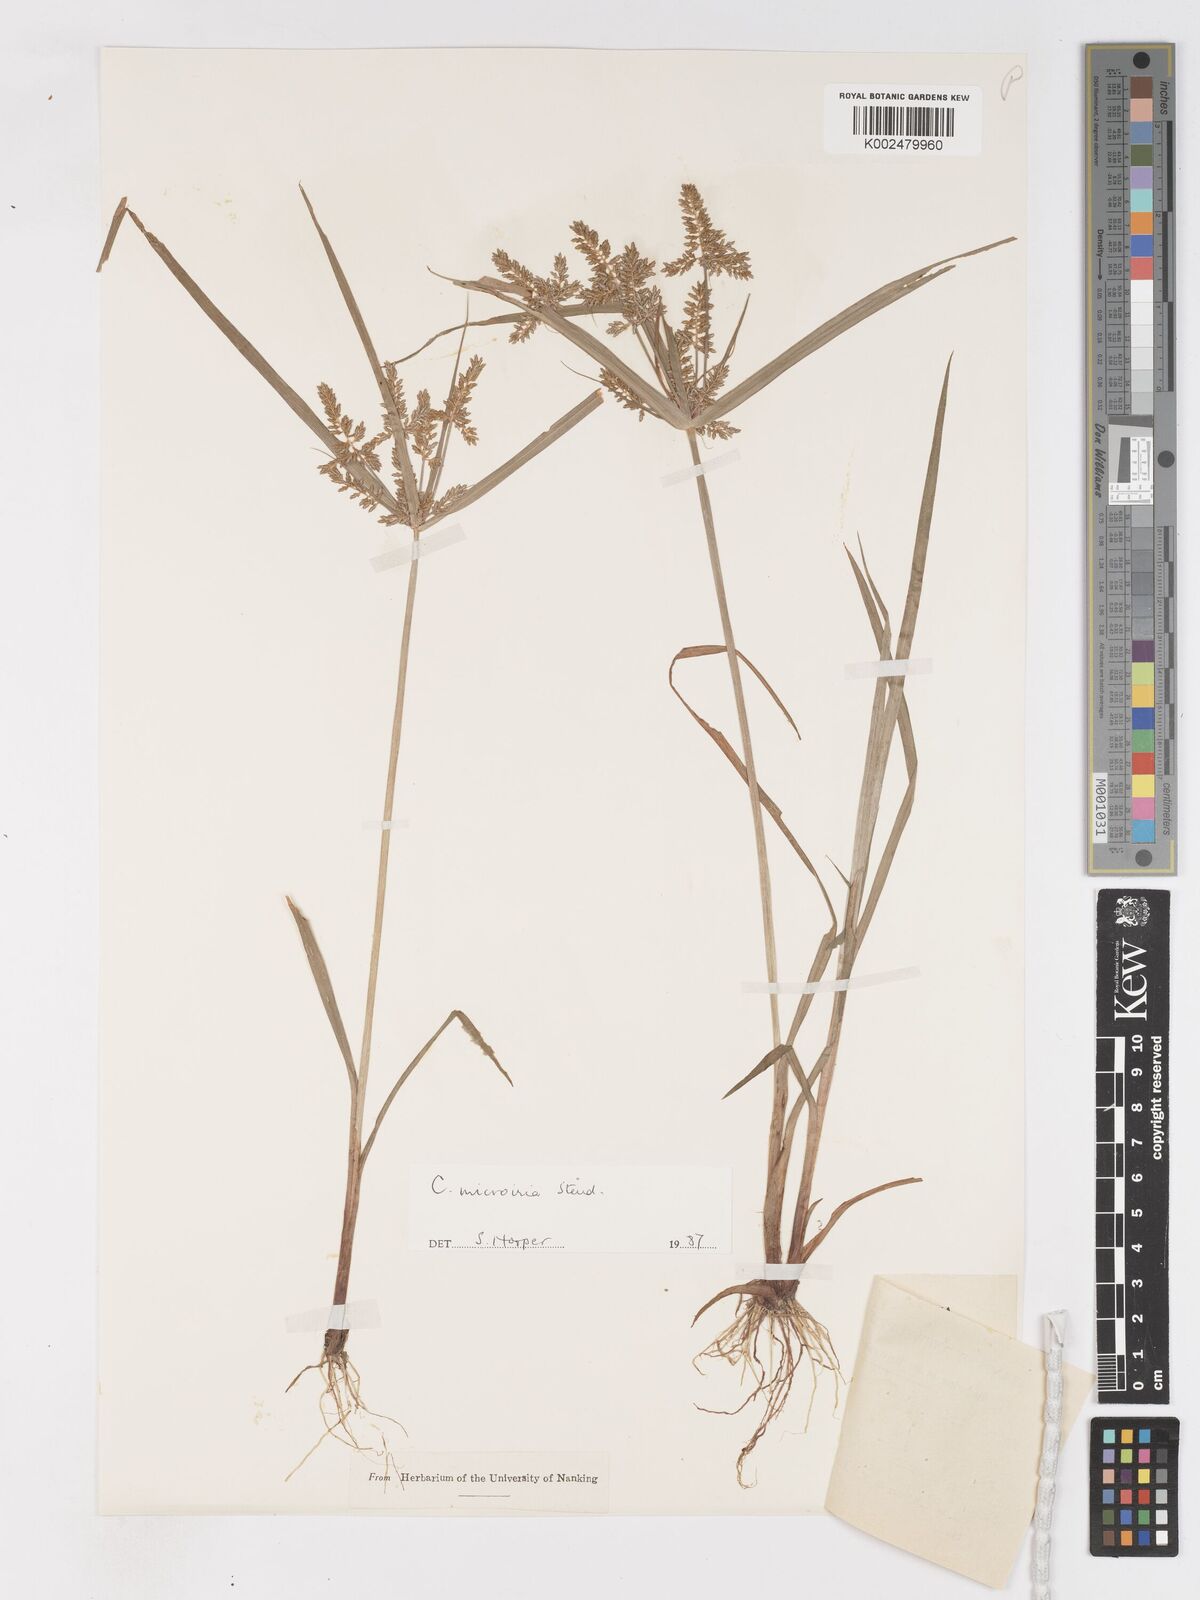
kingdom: Plantae
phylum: Tracheophyta
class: Liliopsida
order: Poales
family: Cyperaceae
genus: Cyperus
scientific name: Cyperus microiria
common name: Asian flatsedge
